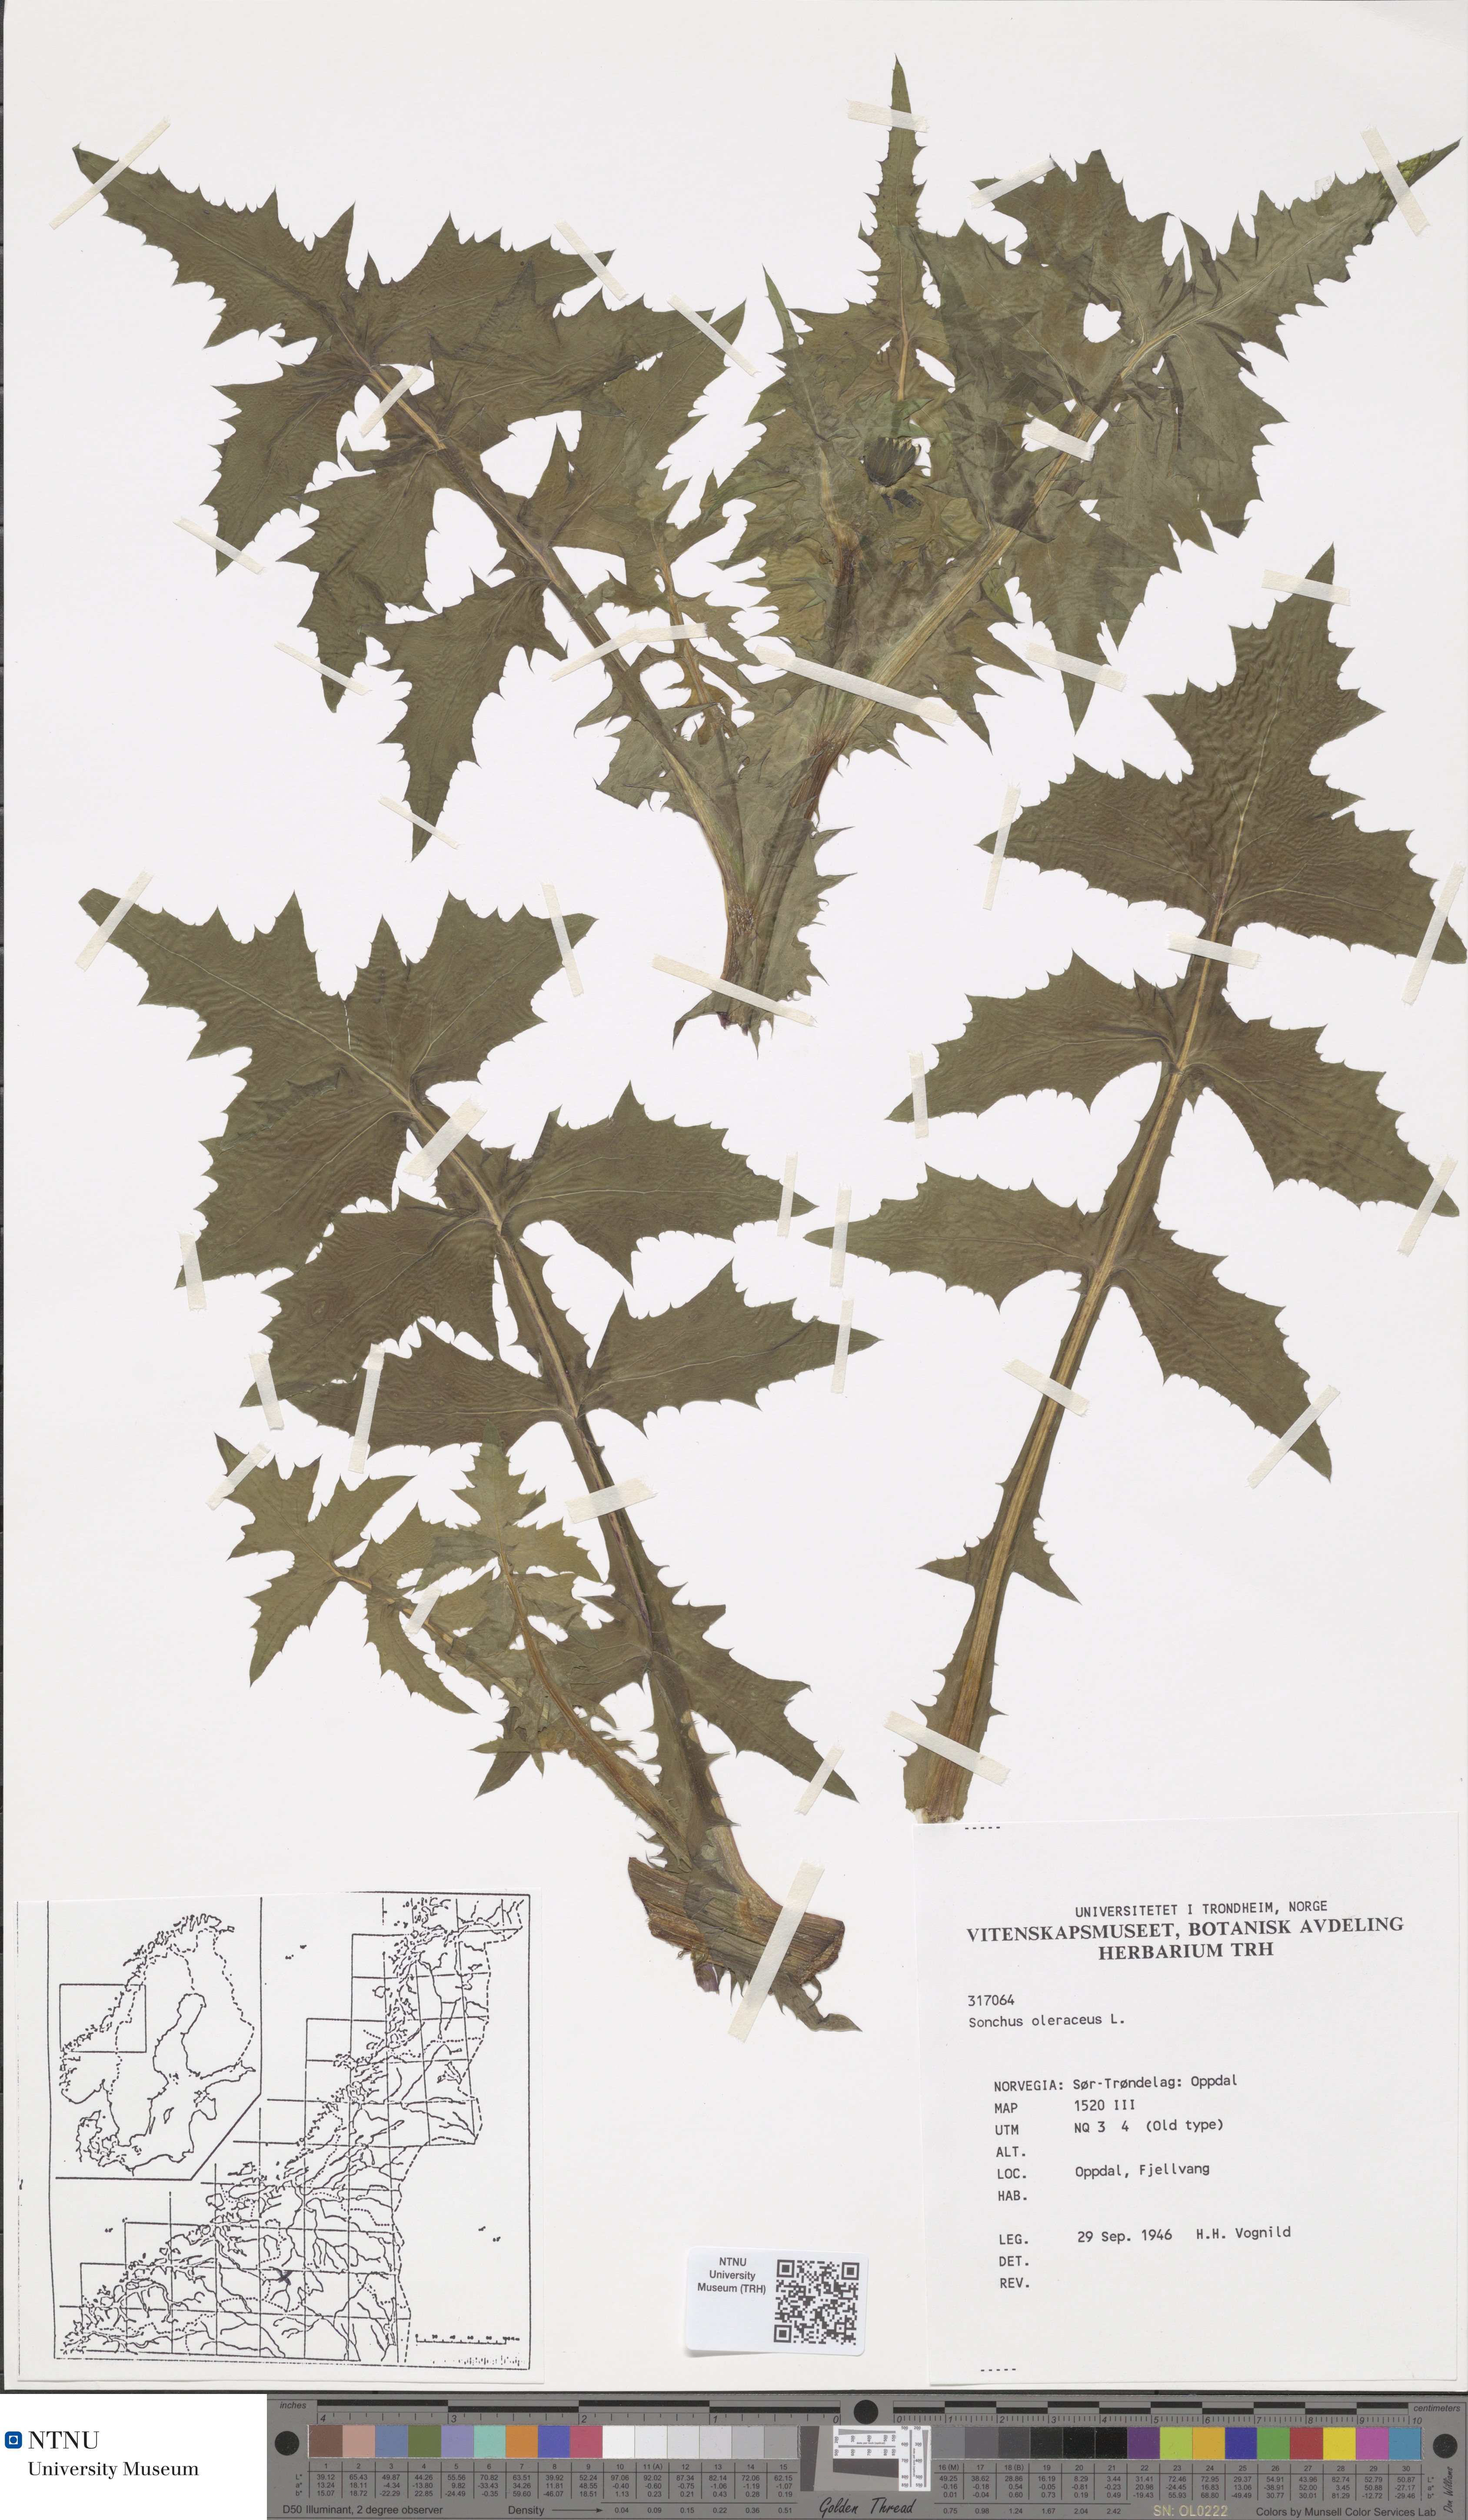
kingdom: Plantae
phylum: Tracheophyta
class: Magnoliopsida
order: Asterales
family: Asteraceae
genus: Sonchus
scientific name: Sonchus oleraceus
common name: Common sowthistle
